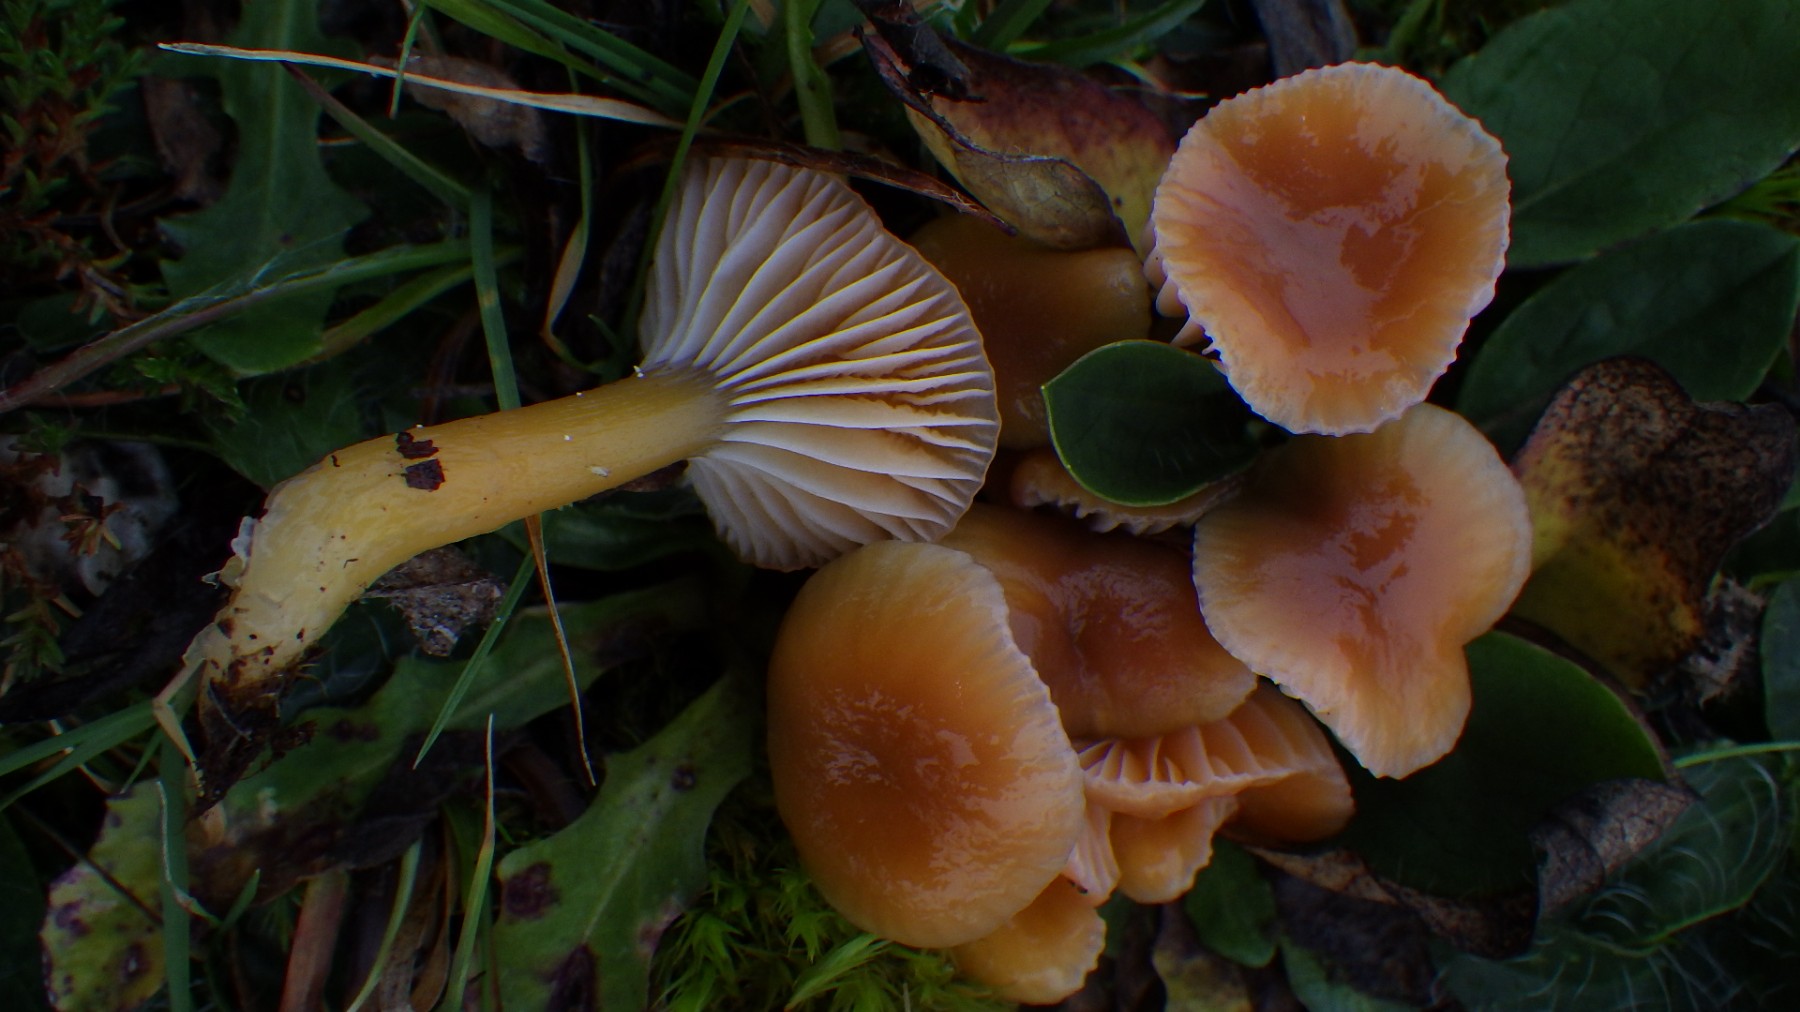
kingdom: Fungi
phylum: Basidiomycota
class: Agaricomycetes
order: Agaricales
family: Hygrophoraceae
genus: Gliophorus
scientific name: Gliophorus laetus
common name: brusk-vokshat
